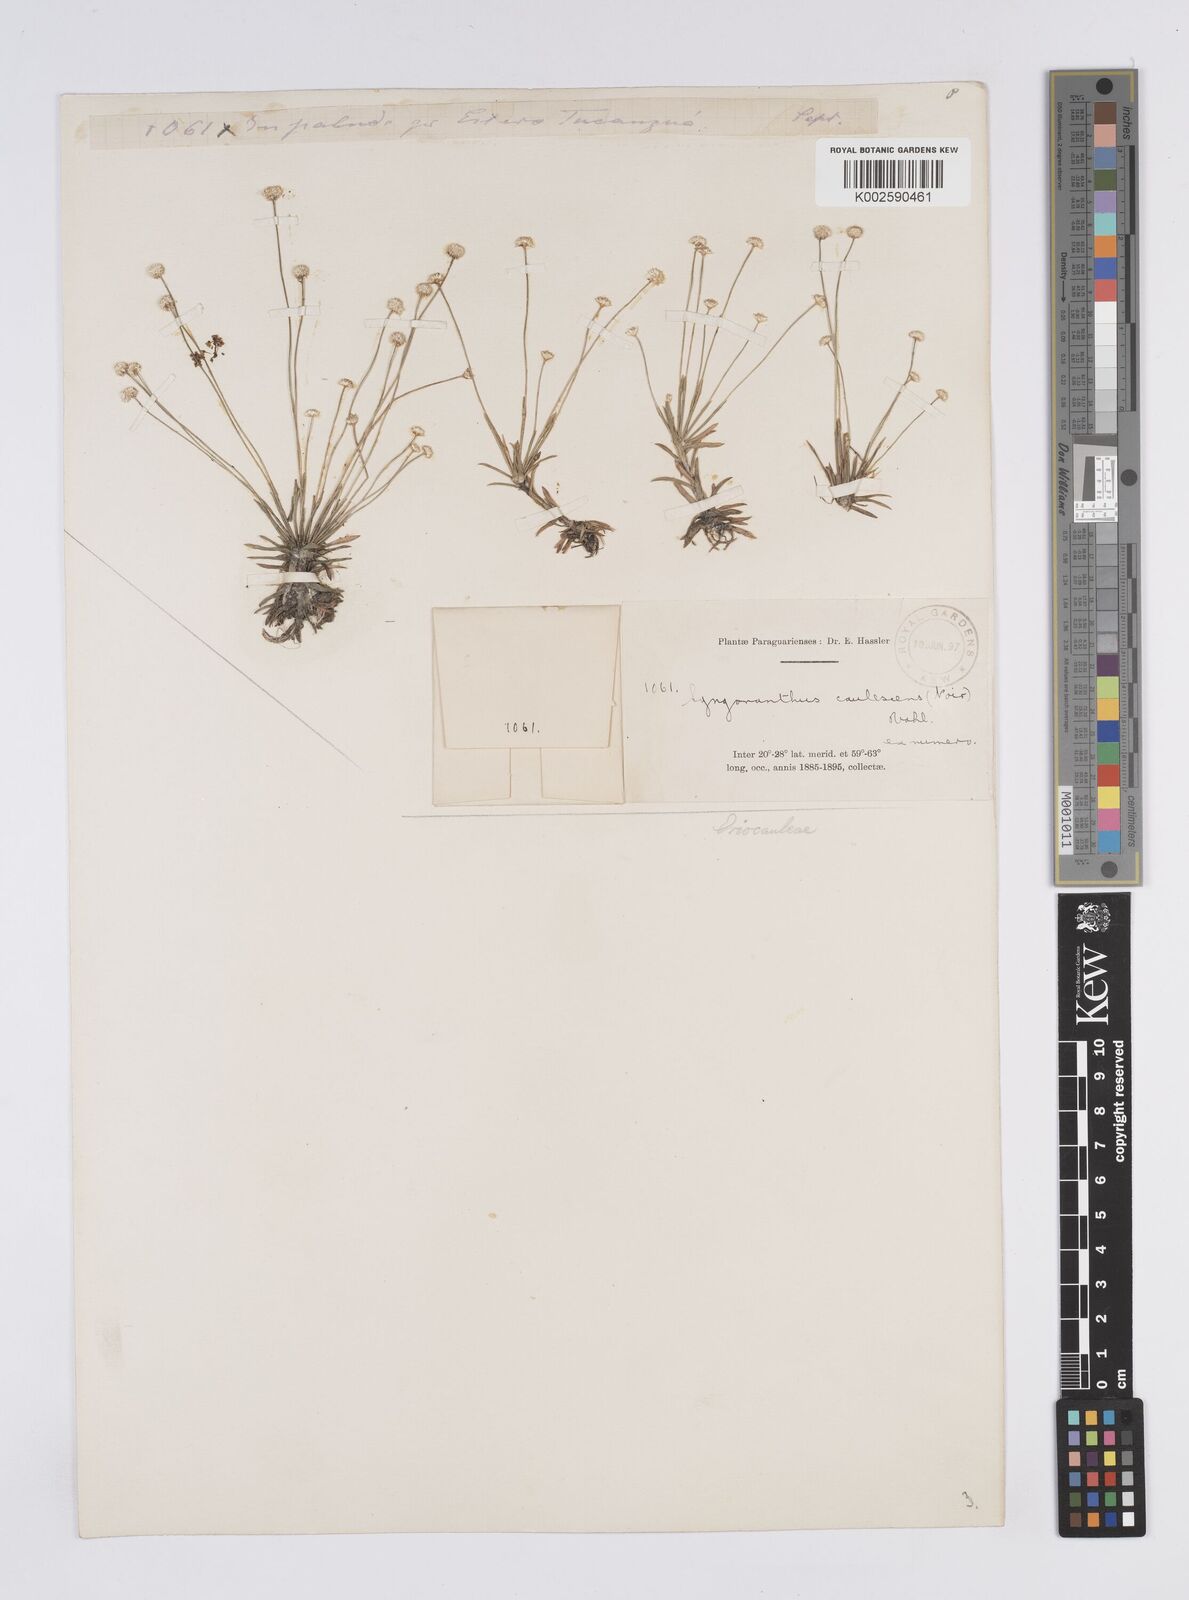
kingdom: Plantae
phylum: Tracheophyta
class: Liliopsida
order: Poales
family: Eriocaulaceae
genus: Syngonanthus
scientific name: Syngonanthus caulescens
